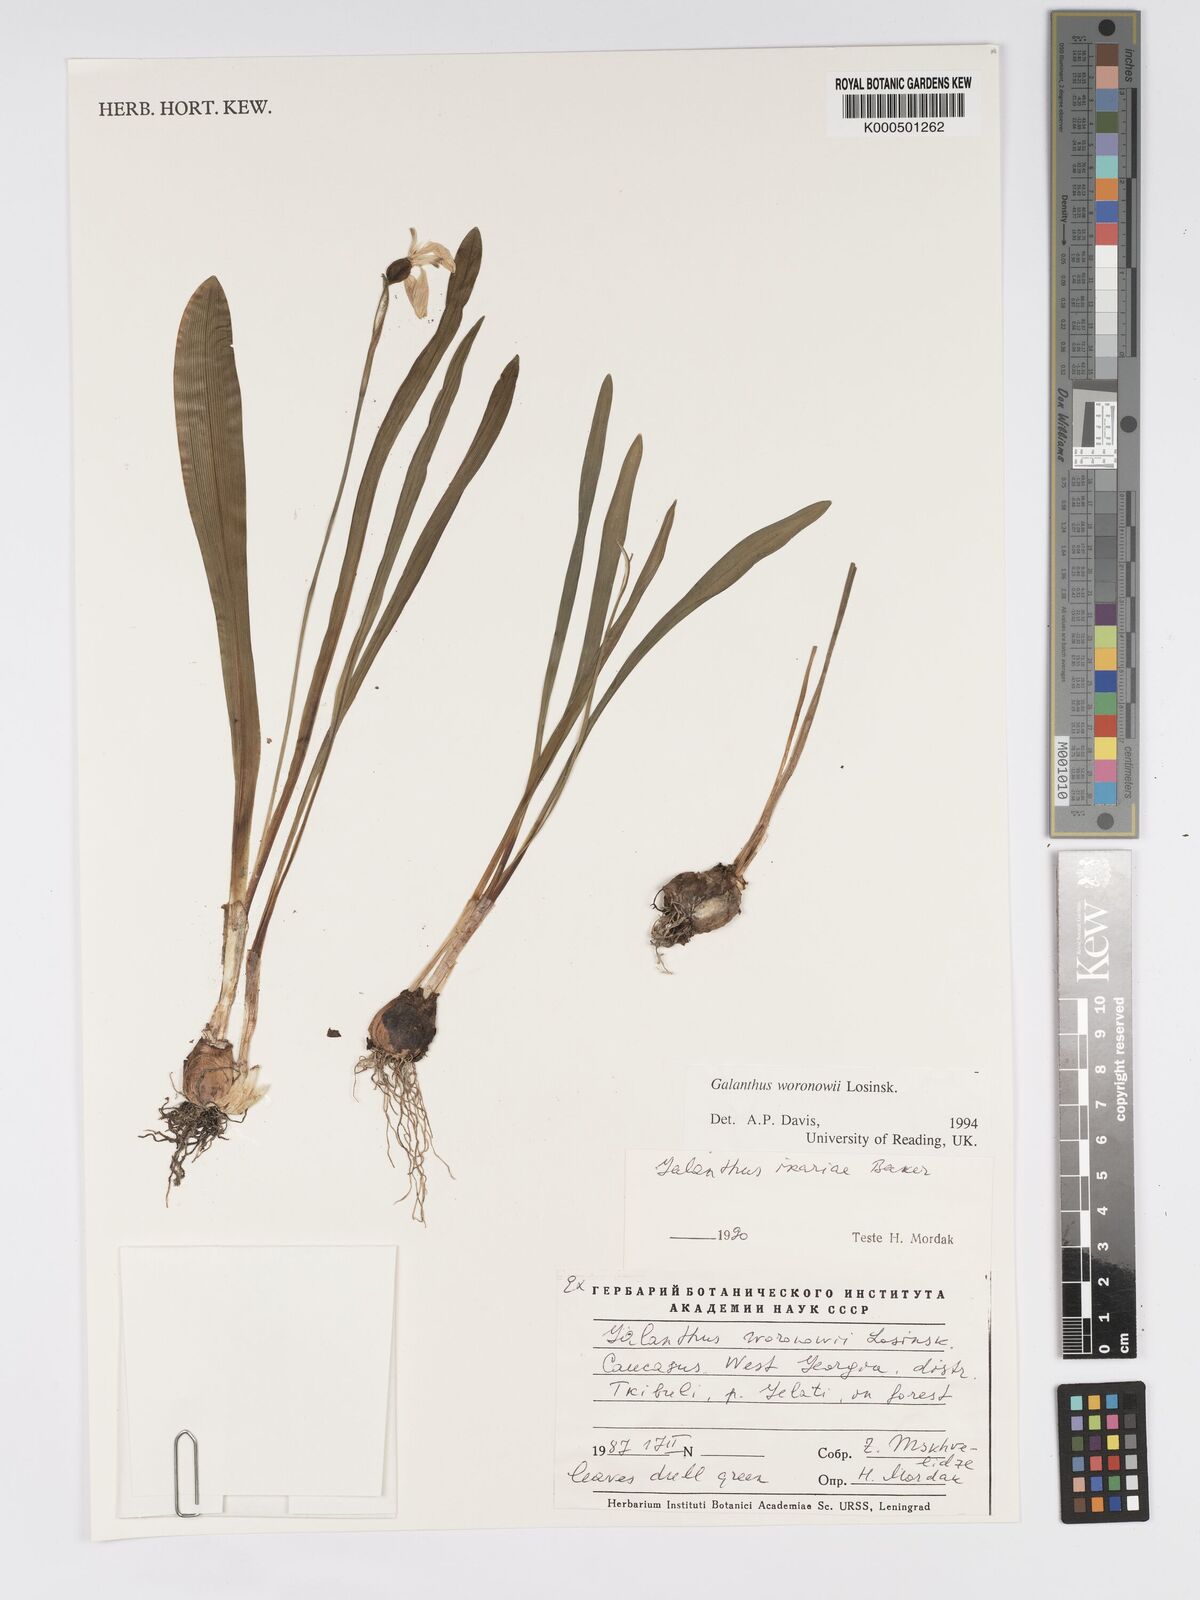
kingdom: Plantae
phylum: Tracheophyta
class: Liliopsida
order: Asparagales
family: Amaryllidaceae
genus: Galanthus
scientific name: Galanthus woronowii
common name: Green snowdrop
